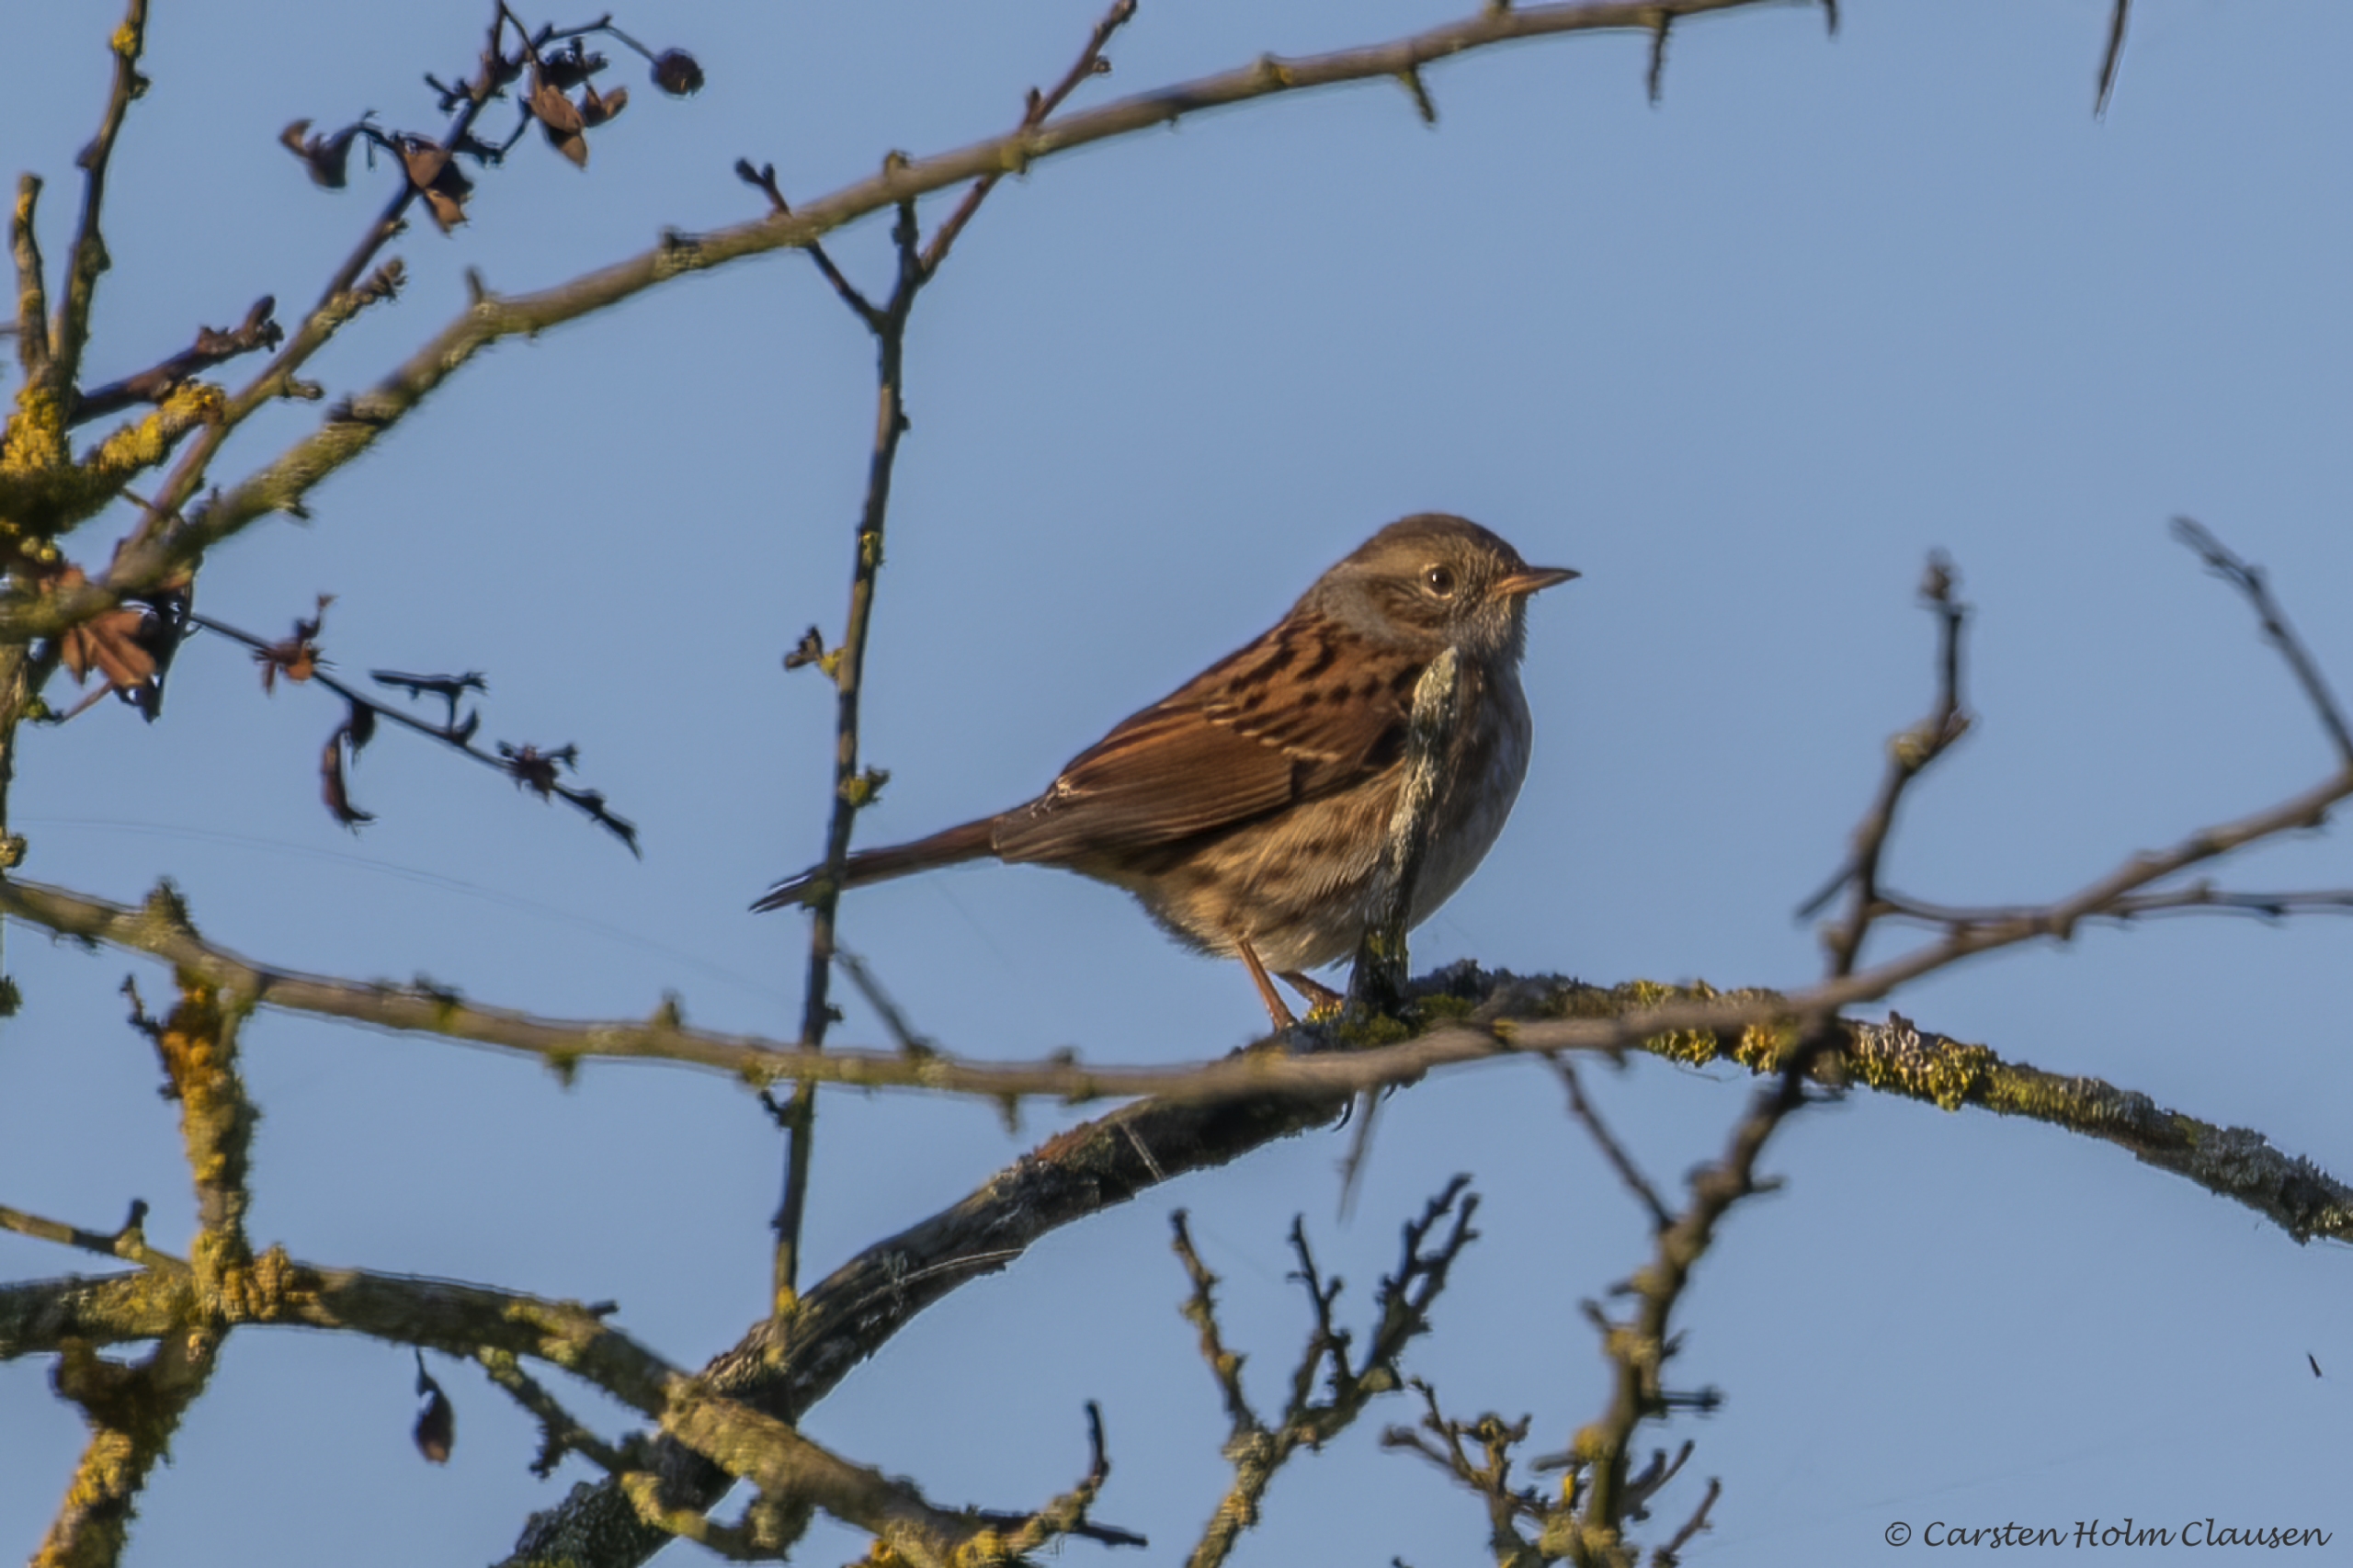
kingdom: Animalia
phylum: Chordata
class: Aves
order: Passeriformes
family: Prunellidae
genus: Prunella
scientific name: Prunella modularis
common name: Jernspurv
